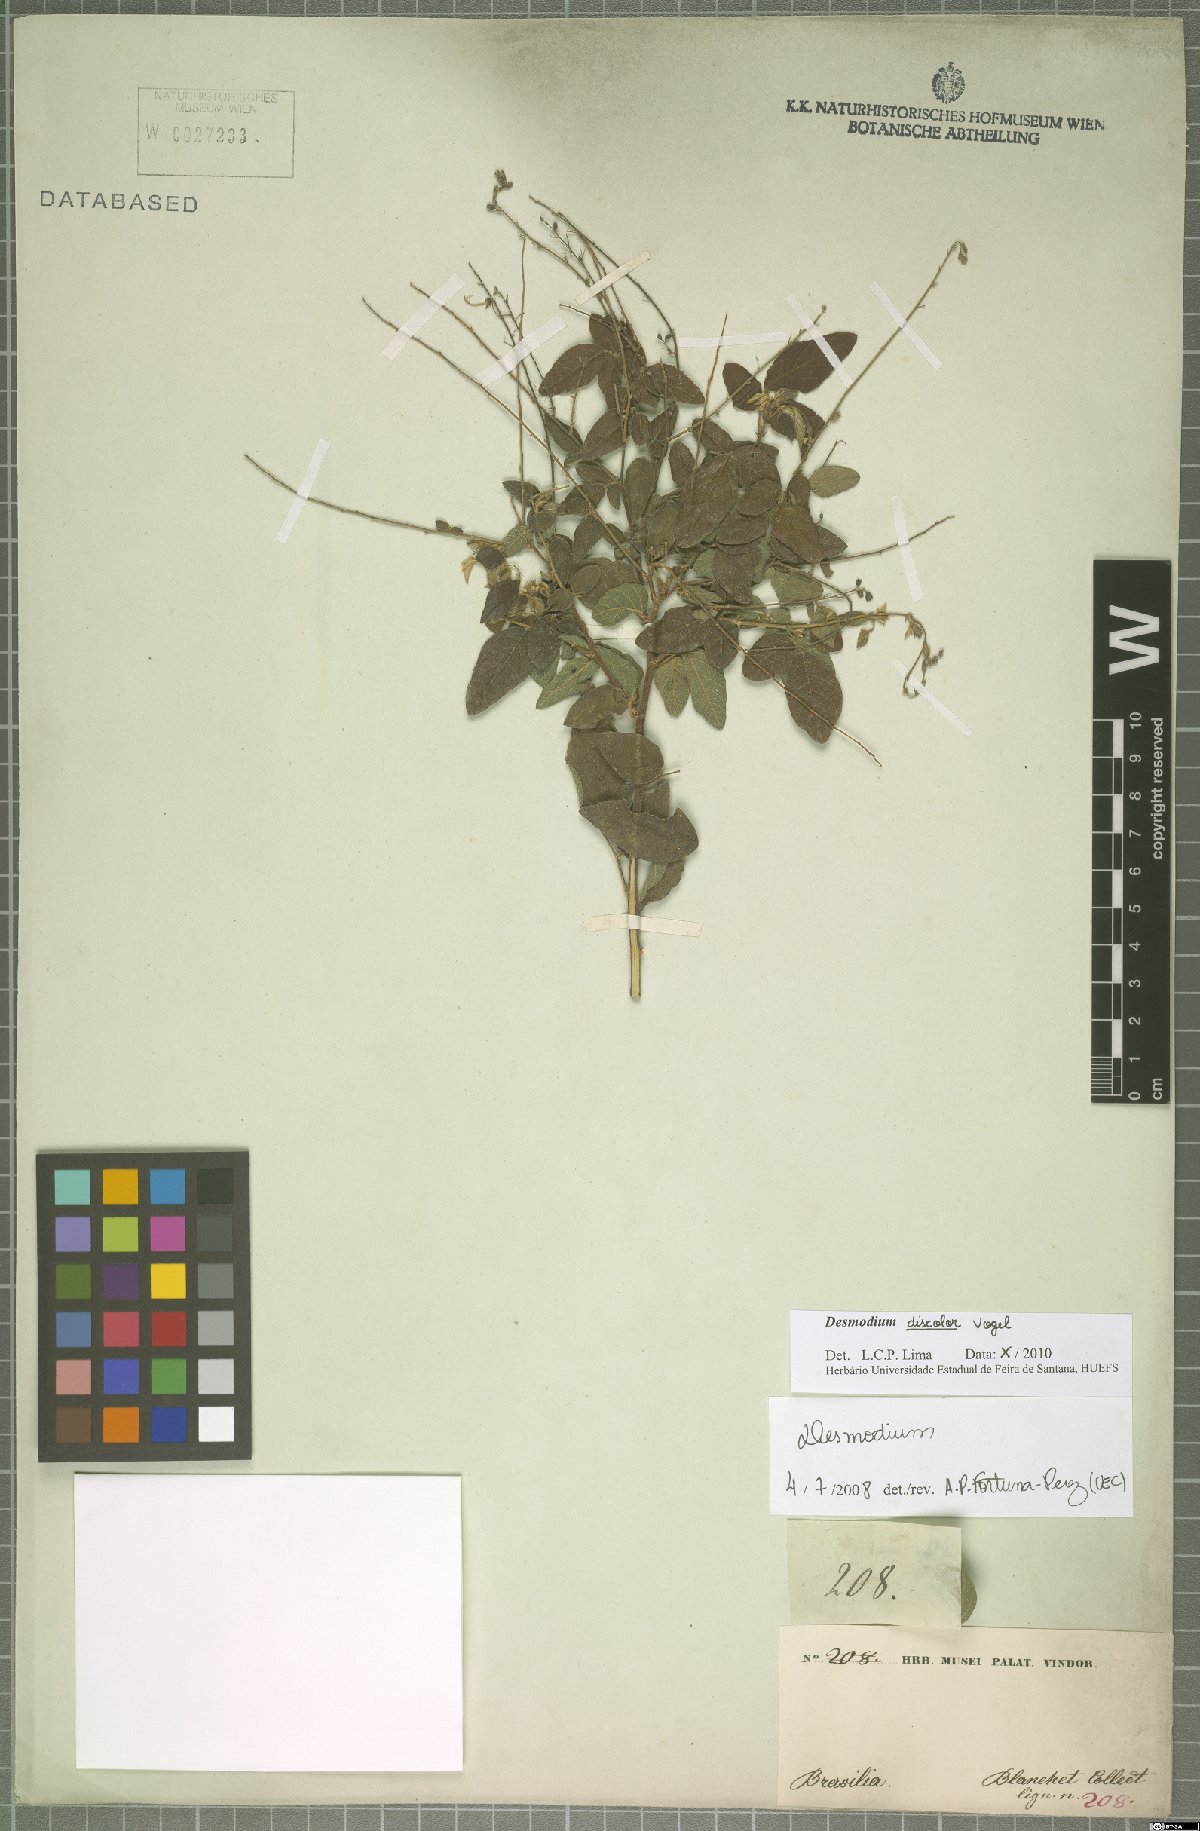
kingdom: Plantae
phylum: Tracheophyta
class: Magnoliopsida
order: Fabales
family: Fabaceae
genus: Desmodium
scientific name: Desmodium subsecundum
